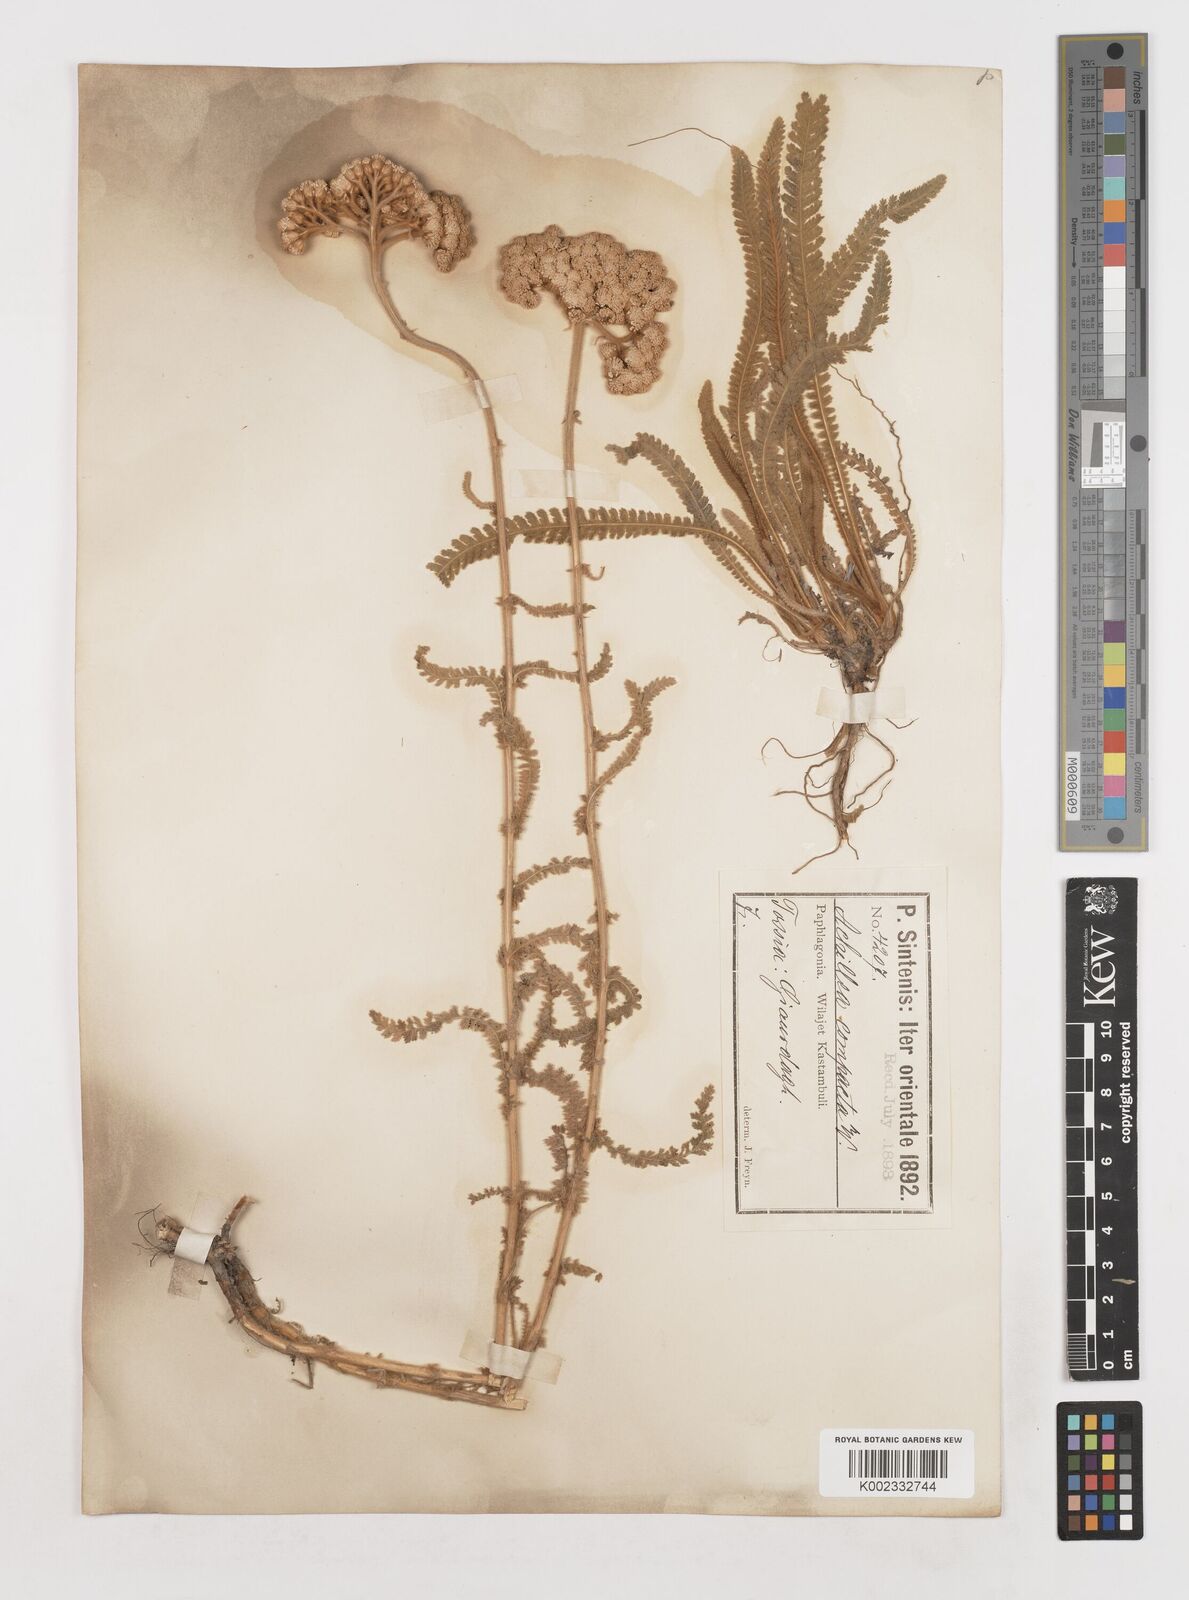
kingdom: Plantae
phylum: Tracheophyta
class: Magnoliopsida
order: Asterales
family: Asteraceae
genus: Achillea
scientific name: Achillea coarctata
